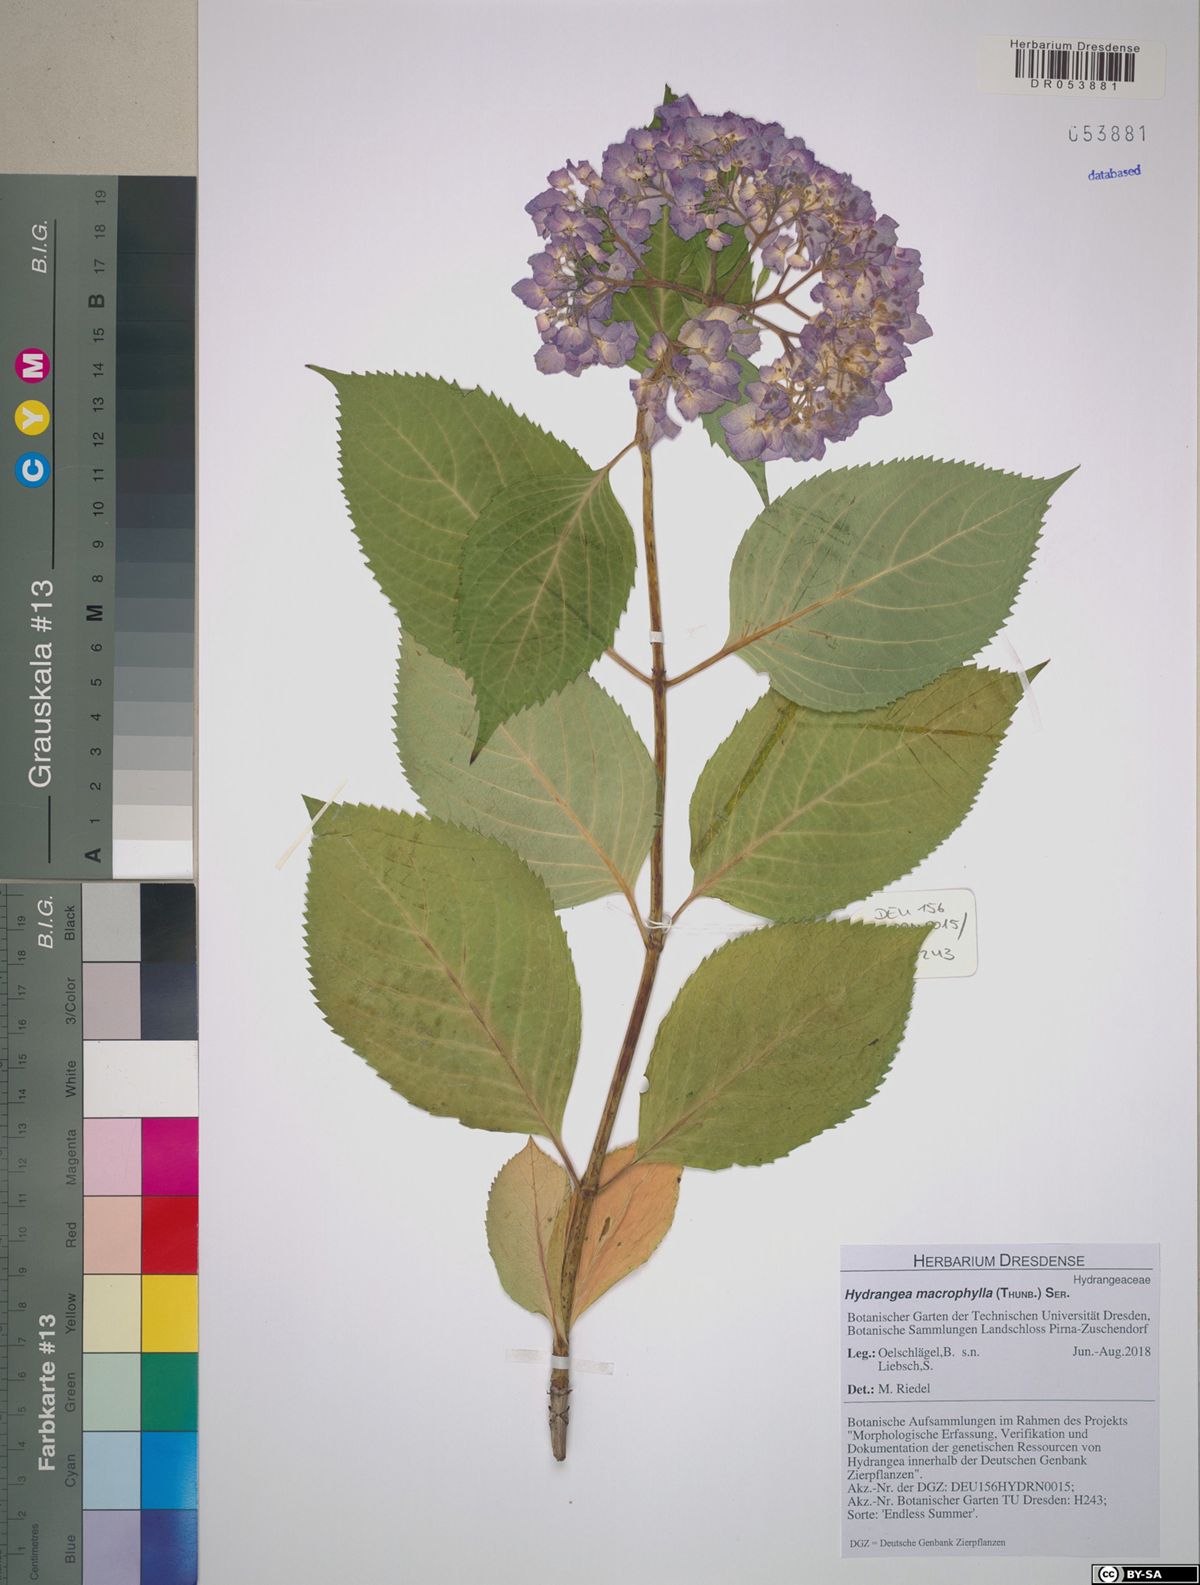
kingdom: Plantae
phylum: Tracheophyta
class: Magnoliopsida
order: Cornales
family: Hydrangeaceae
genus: Hydrangea
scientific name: Hydrangea macrophylla
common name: Hydrangea
